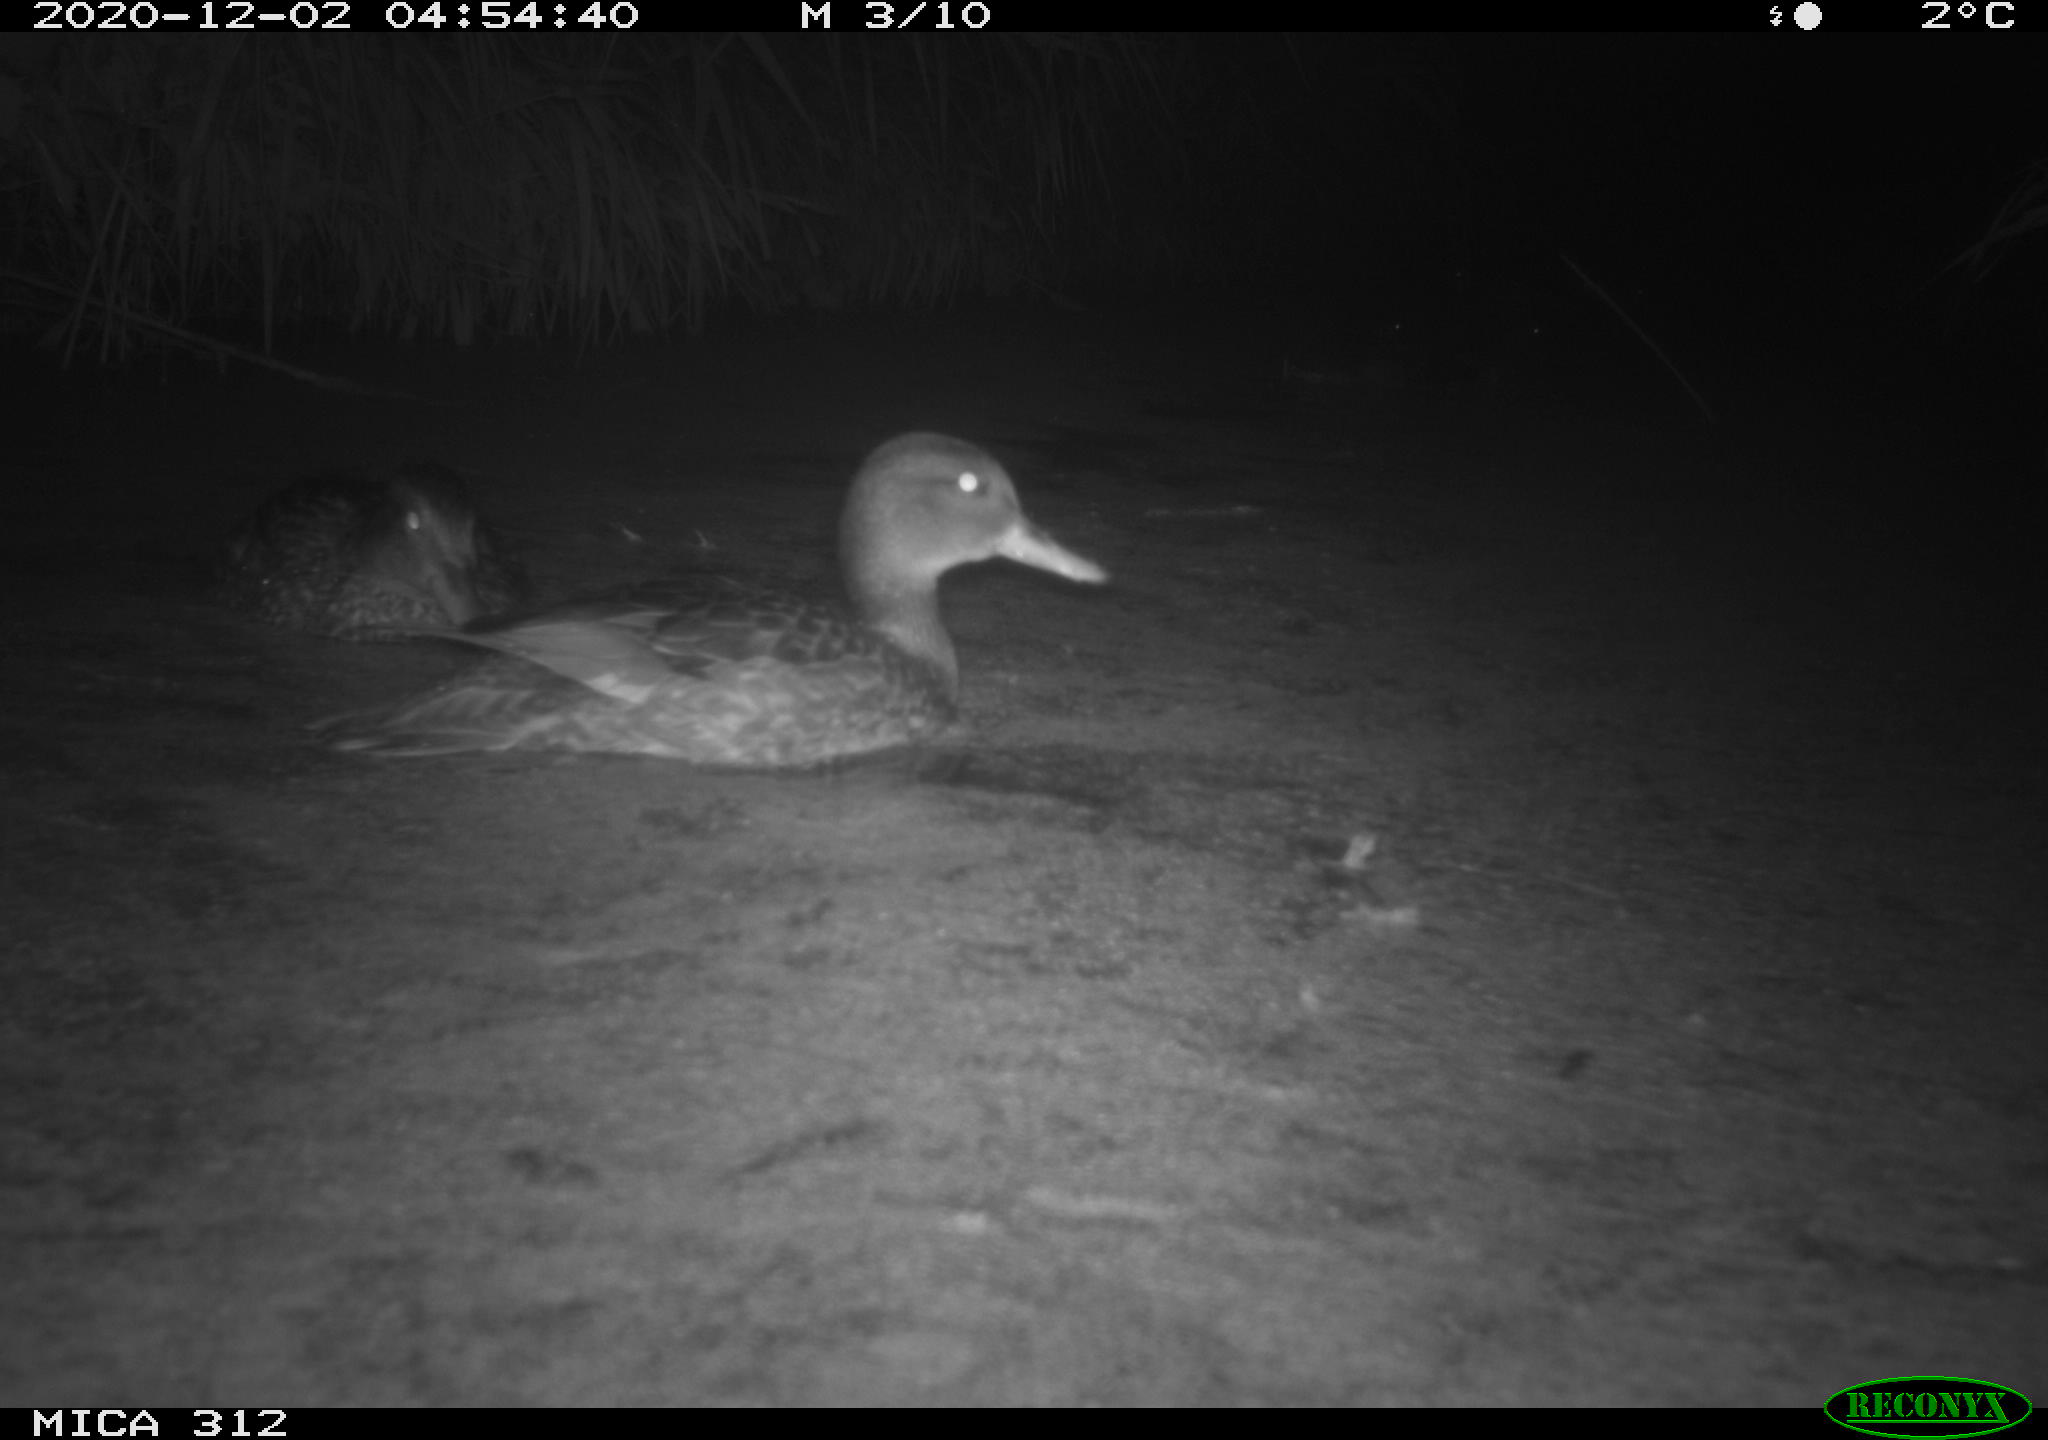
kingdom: Animalia
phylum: Chordata
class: Aves
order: Anseriformes
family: Anatidae
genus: Anas
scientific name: Anas platyrhynchos
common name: Mallard
